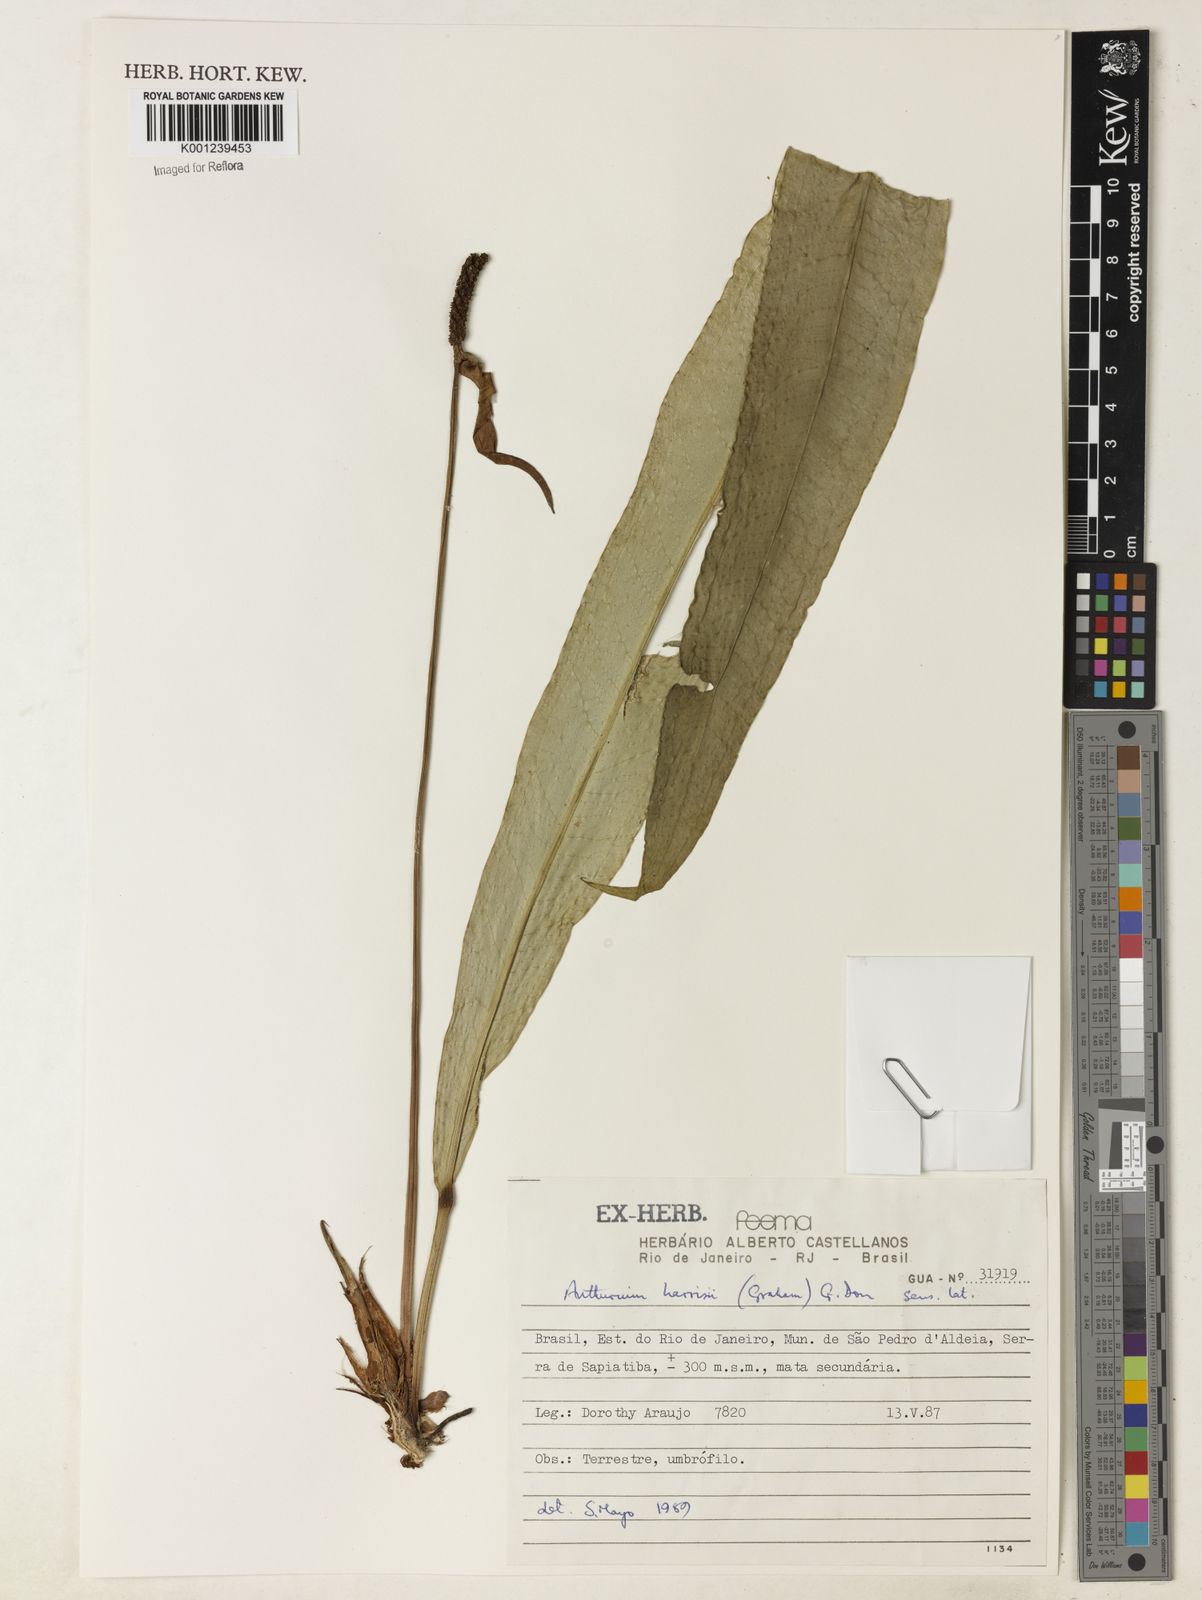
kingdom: Plantae
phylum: Tracheophyta
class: Liliopsida
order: Alismatales
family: Araceae
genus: Anthurium
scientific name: Anthurium harrisii
